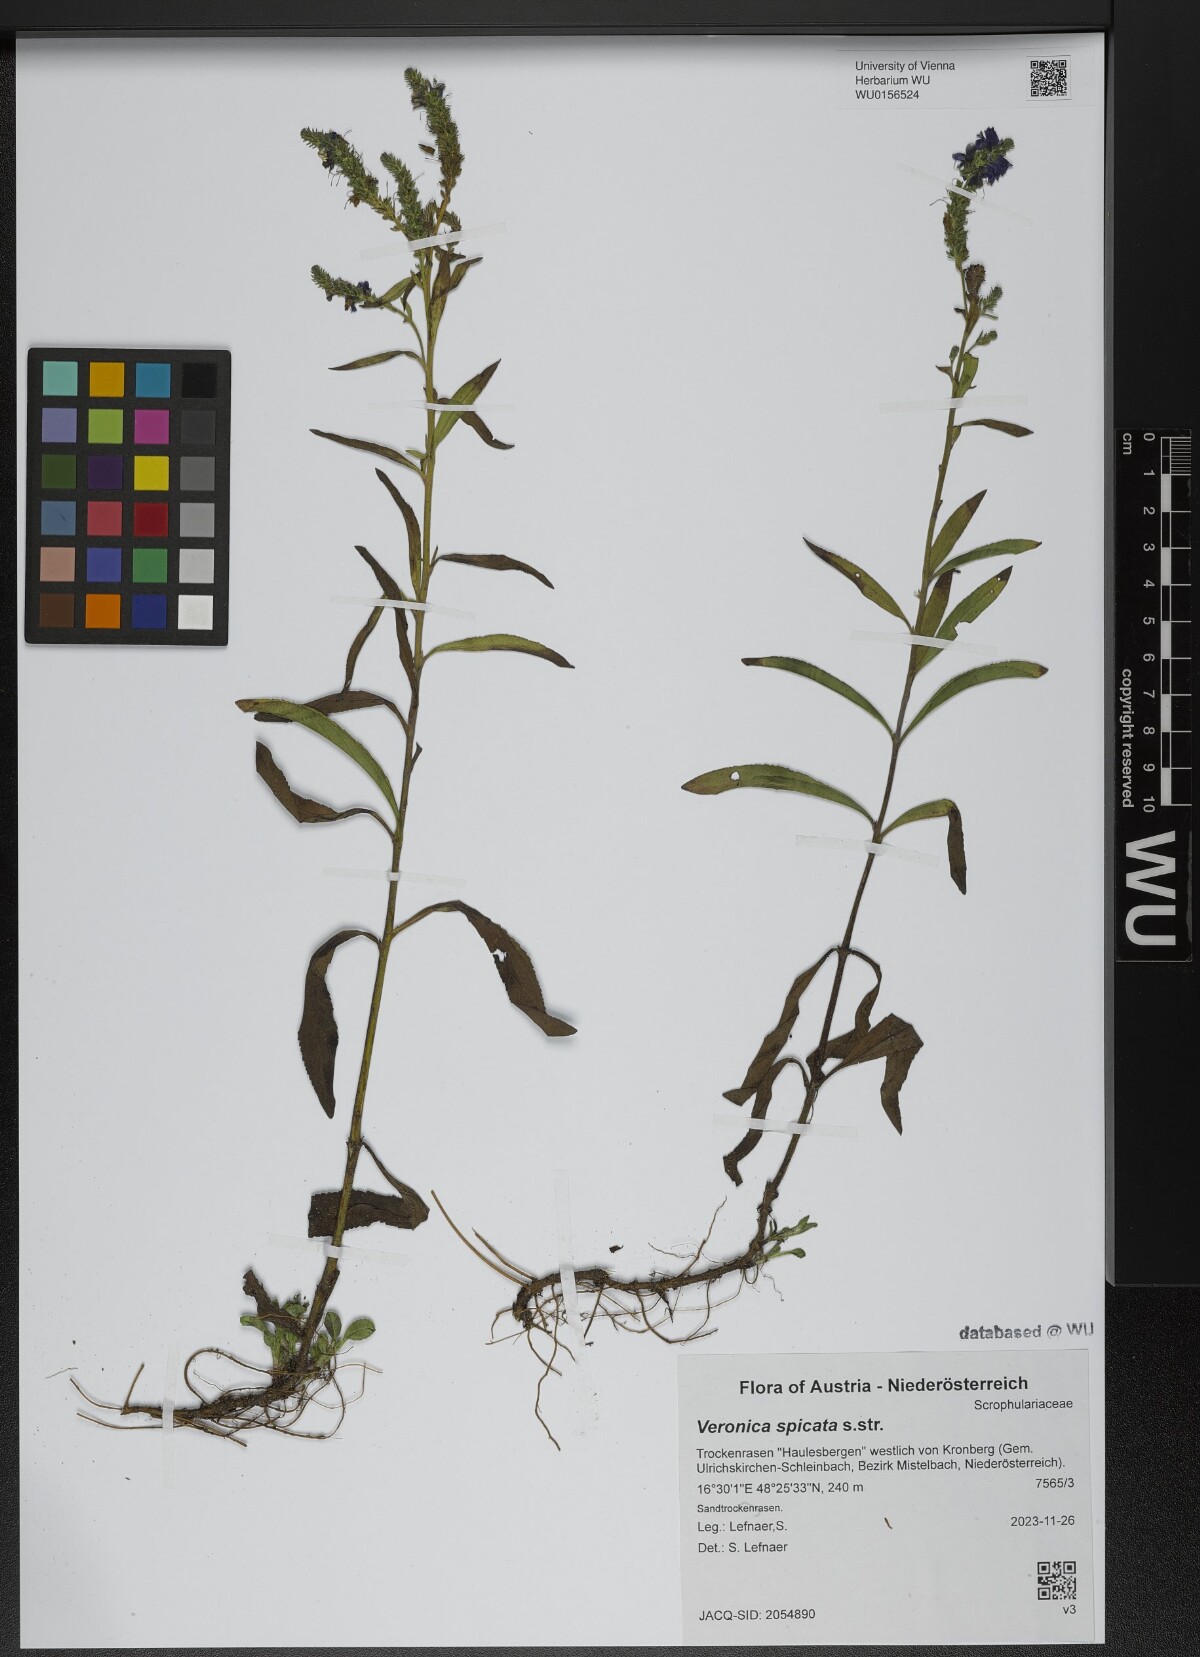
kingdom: Plantae
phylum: Tracheophyta
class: Magnoliopsida
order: Lamiales
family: Plantaginaceae
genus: Veronica
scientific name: Veronica spicata
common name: Spiked speedwell
